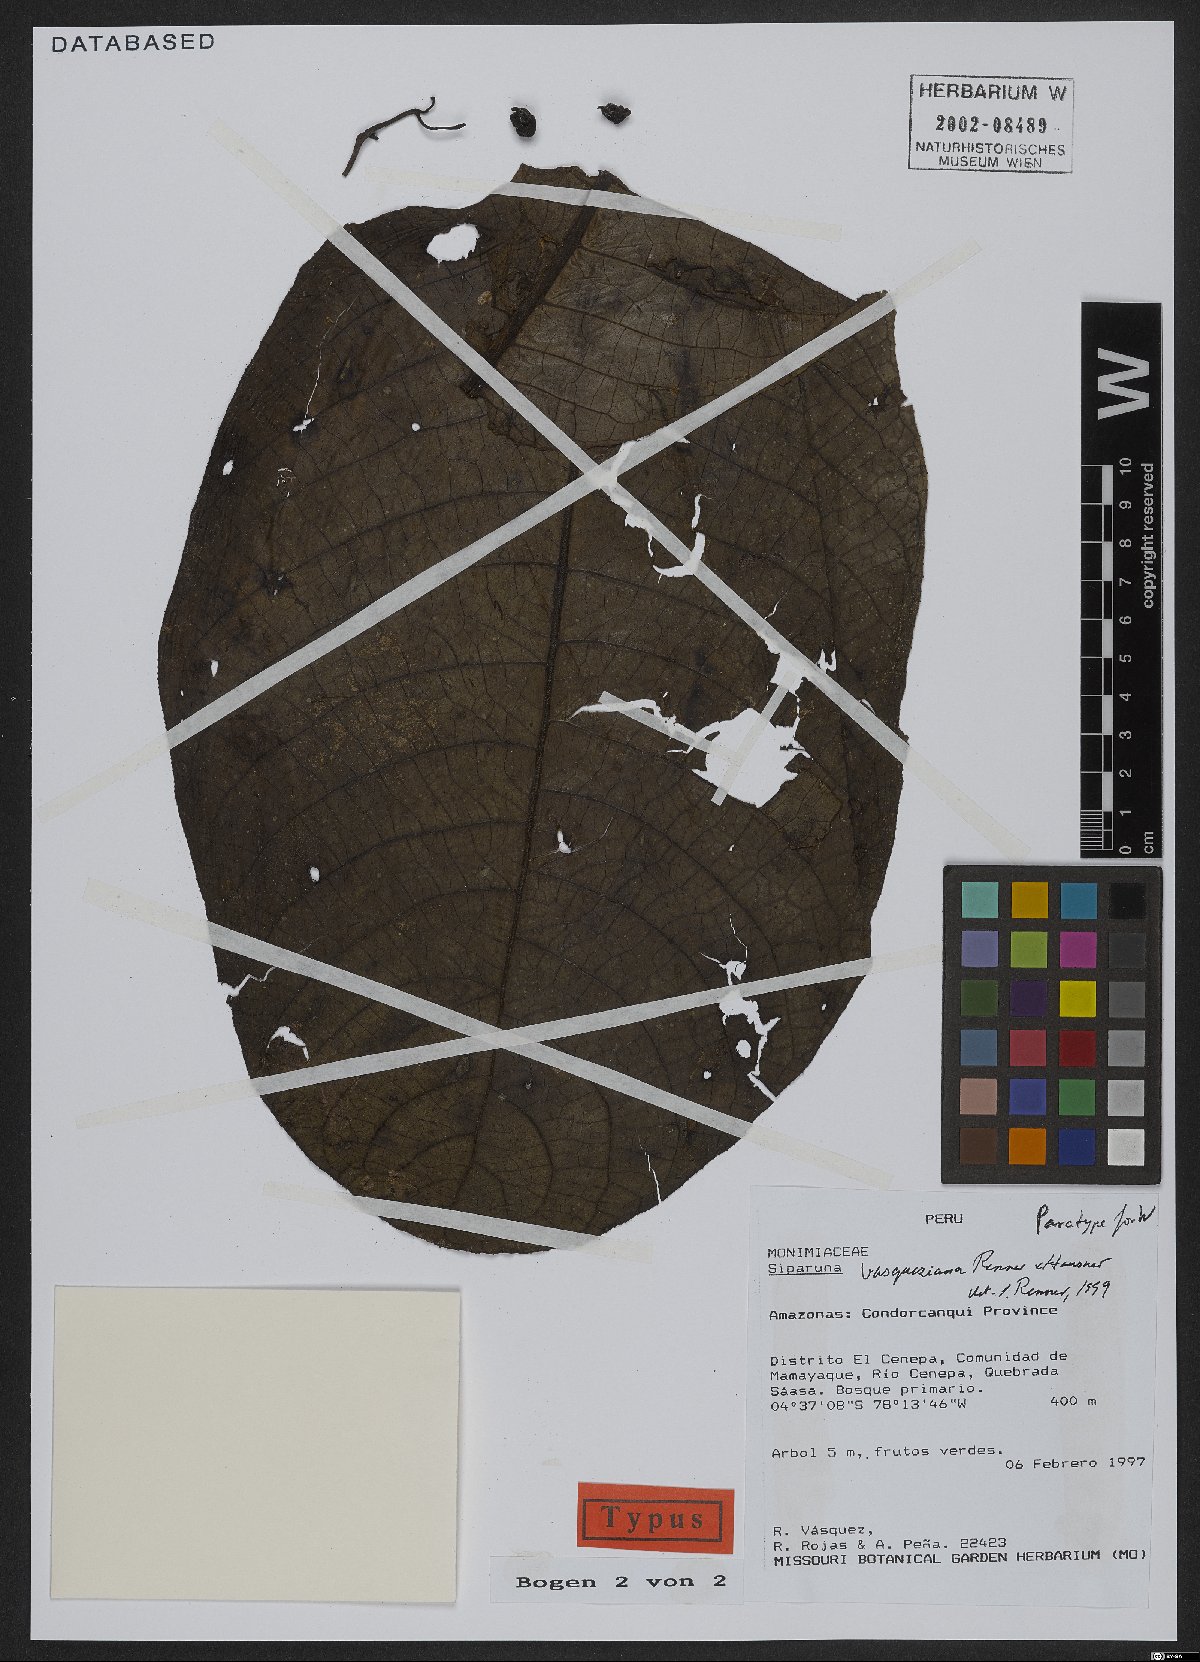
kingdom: Plantae
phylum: Tracheophyta
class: Magnoliopsida
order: Laurales
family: Siparunaceae
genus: Siparuna
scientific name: Siparuna vasqueziana
